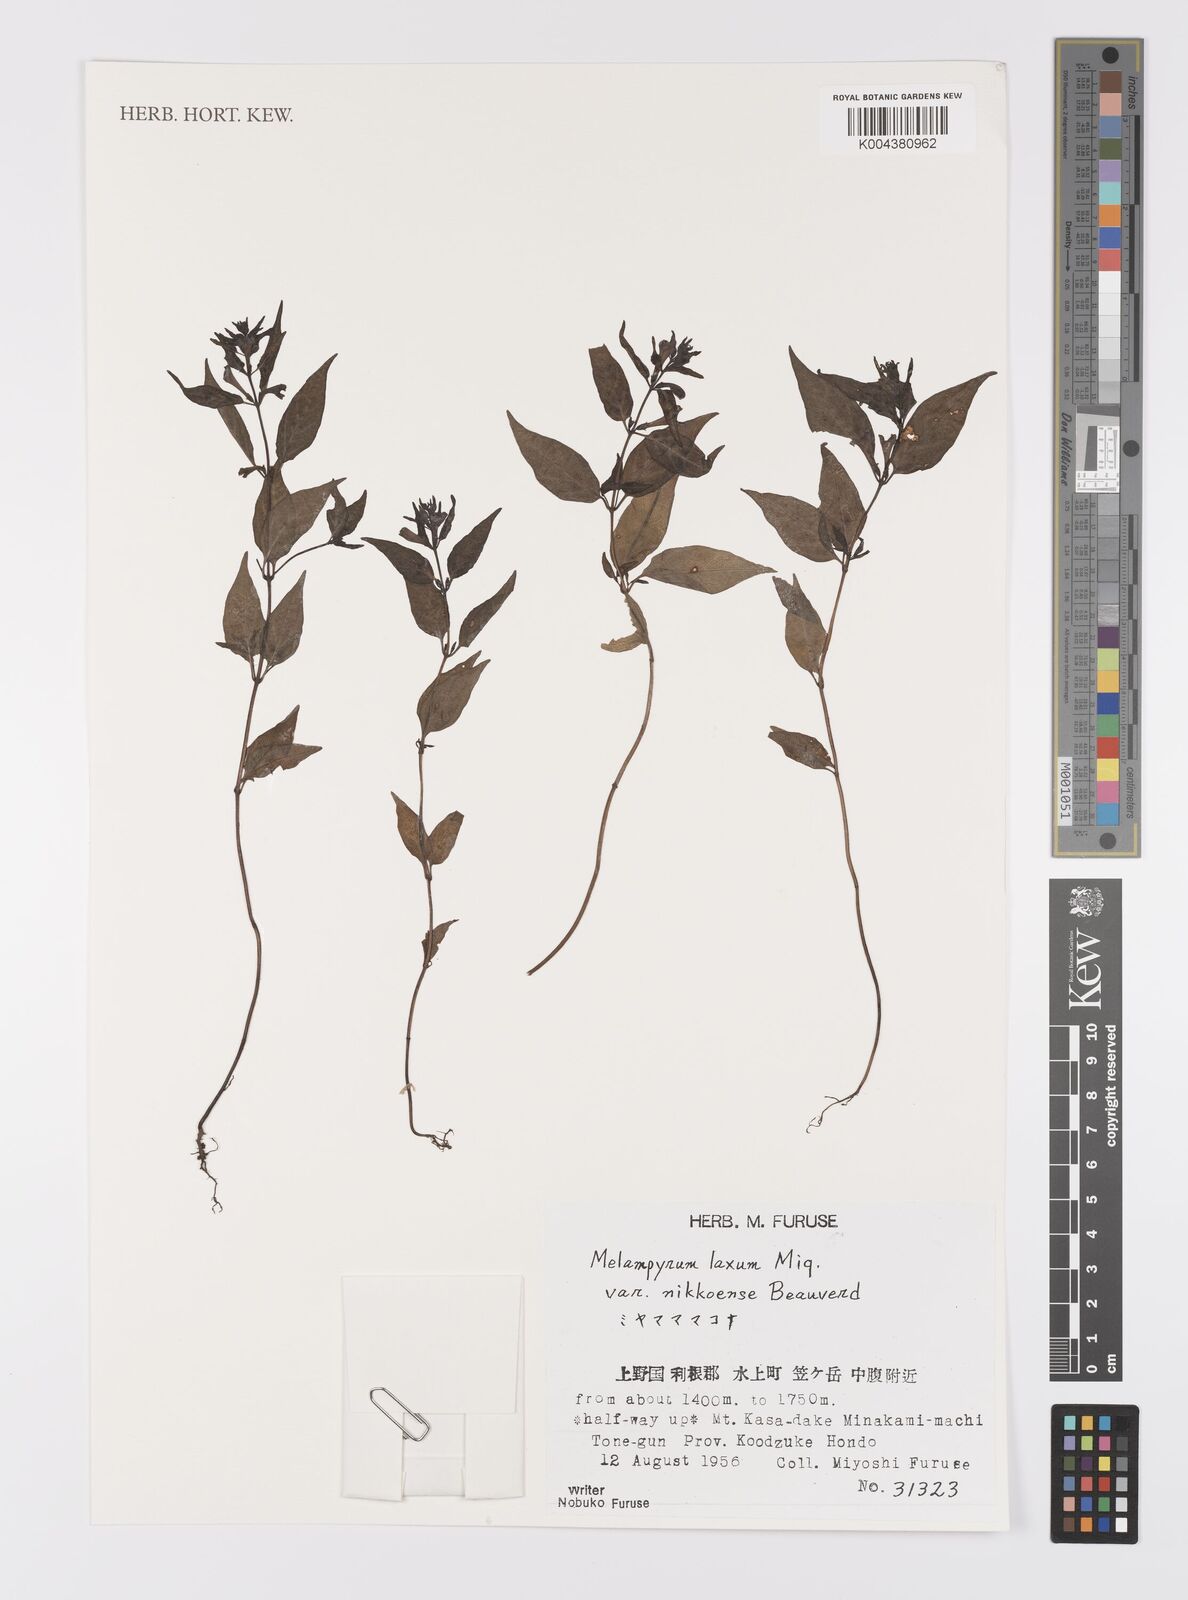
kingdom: Plantae
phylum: Tracheophyta
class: Magnoliopsida
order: Lamiales
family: Orobanchaceae
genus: Melampyrum
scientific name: Melampyrum laxum
